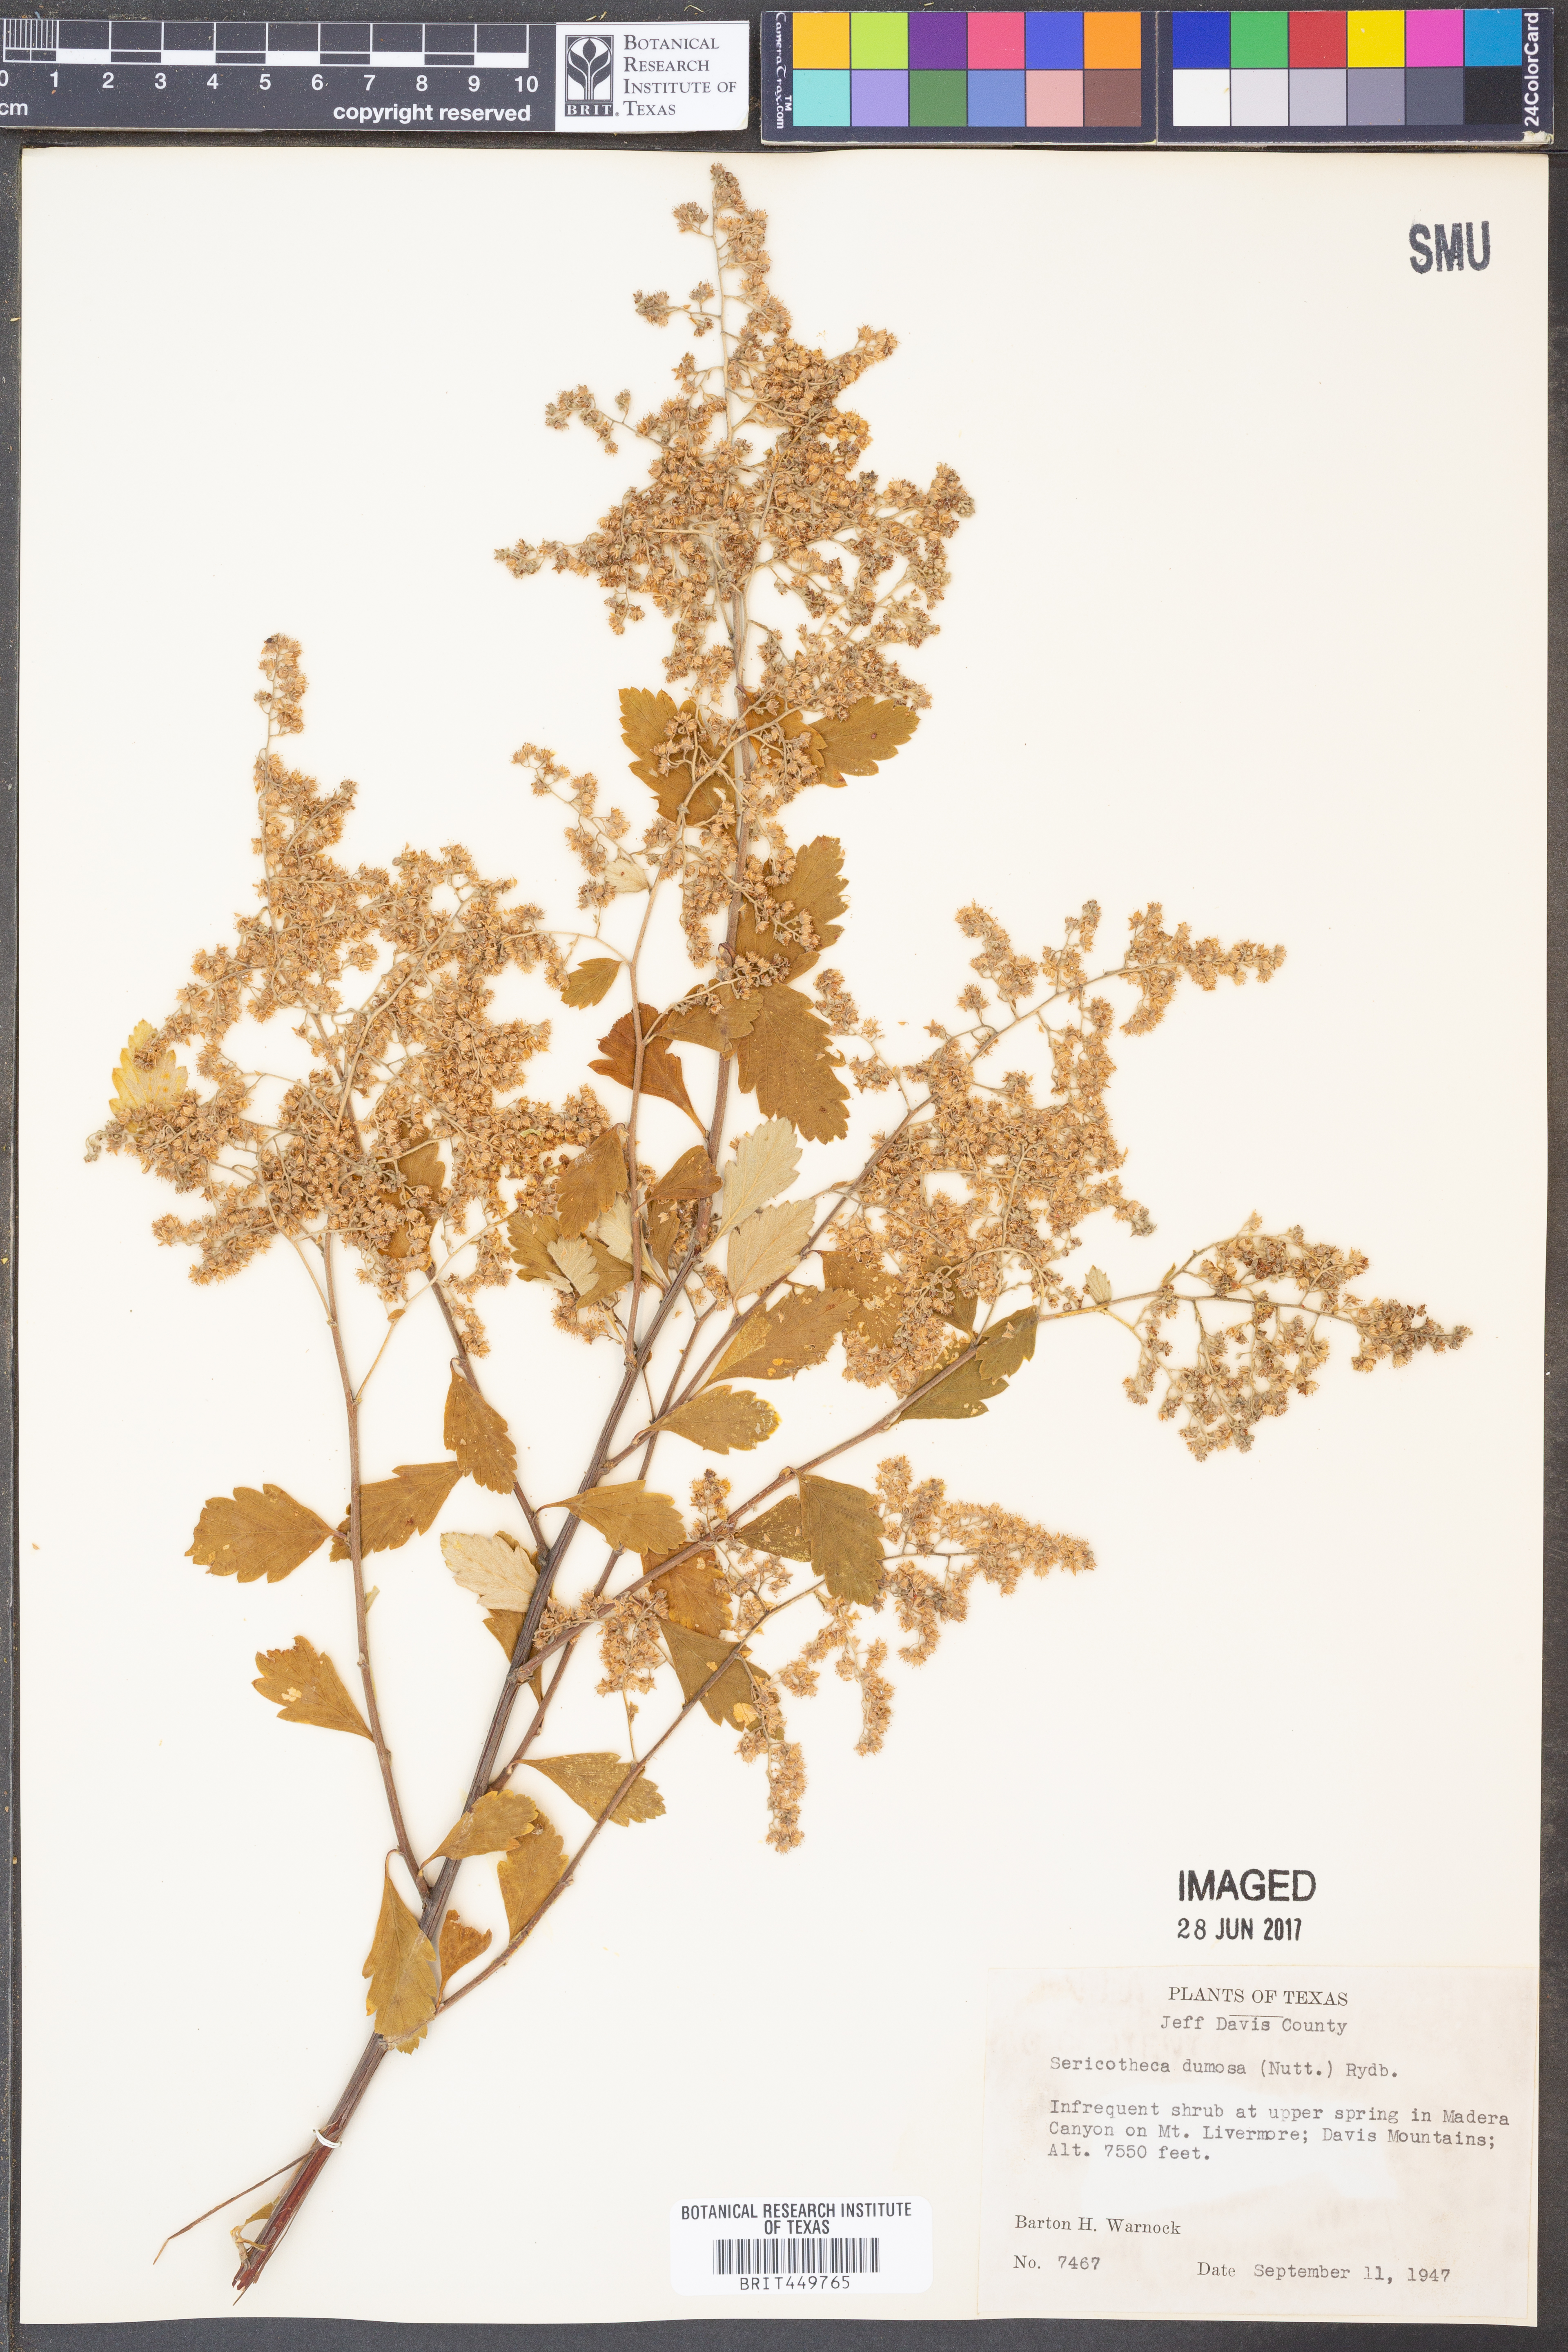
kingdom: Plantae
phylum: Tracheophyta
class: Magnoliopsida
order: Rosales
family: Rosaceae
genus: Holodiscus
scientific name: Holodiscus australis
